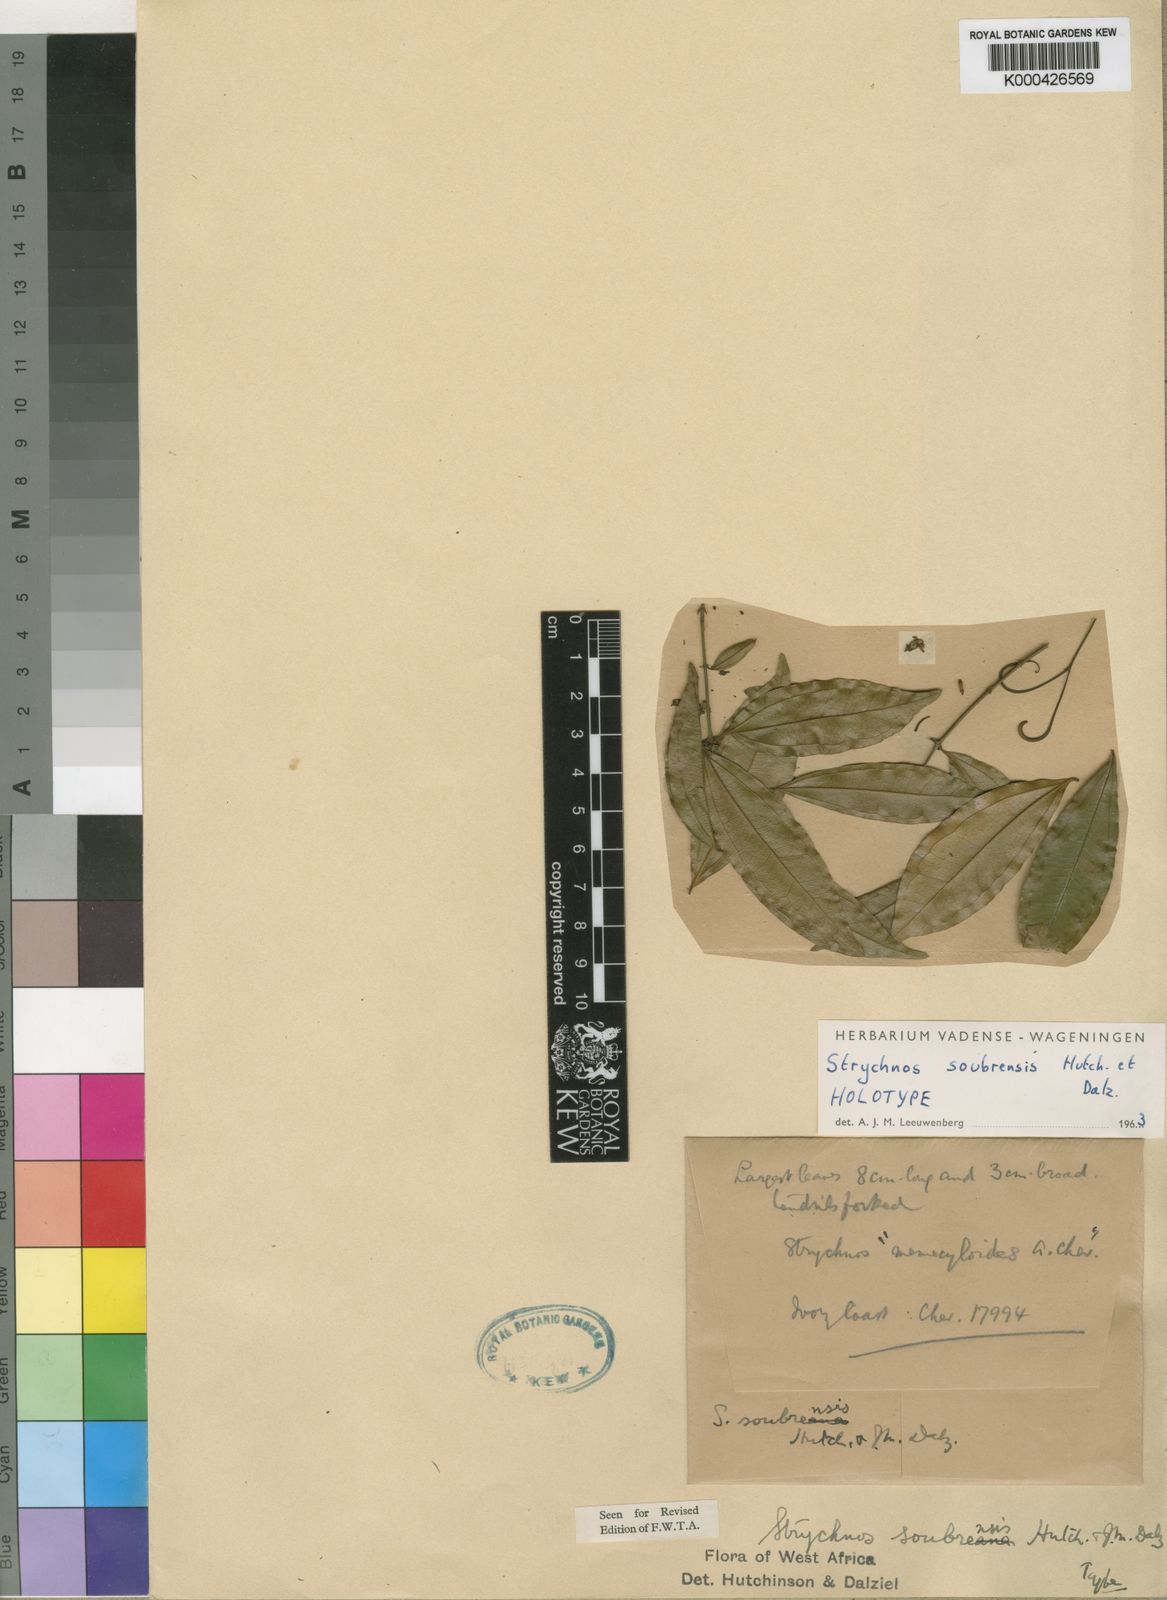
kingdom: Plantae
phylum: Tracheophyta
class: Magnoliopsida
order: Gentianales
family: Loganiaceae
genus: Strychnos
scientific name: Strychnos soubrensis
